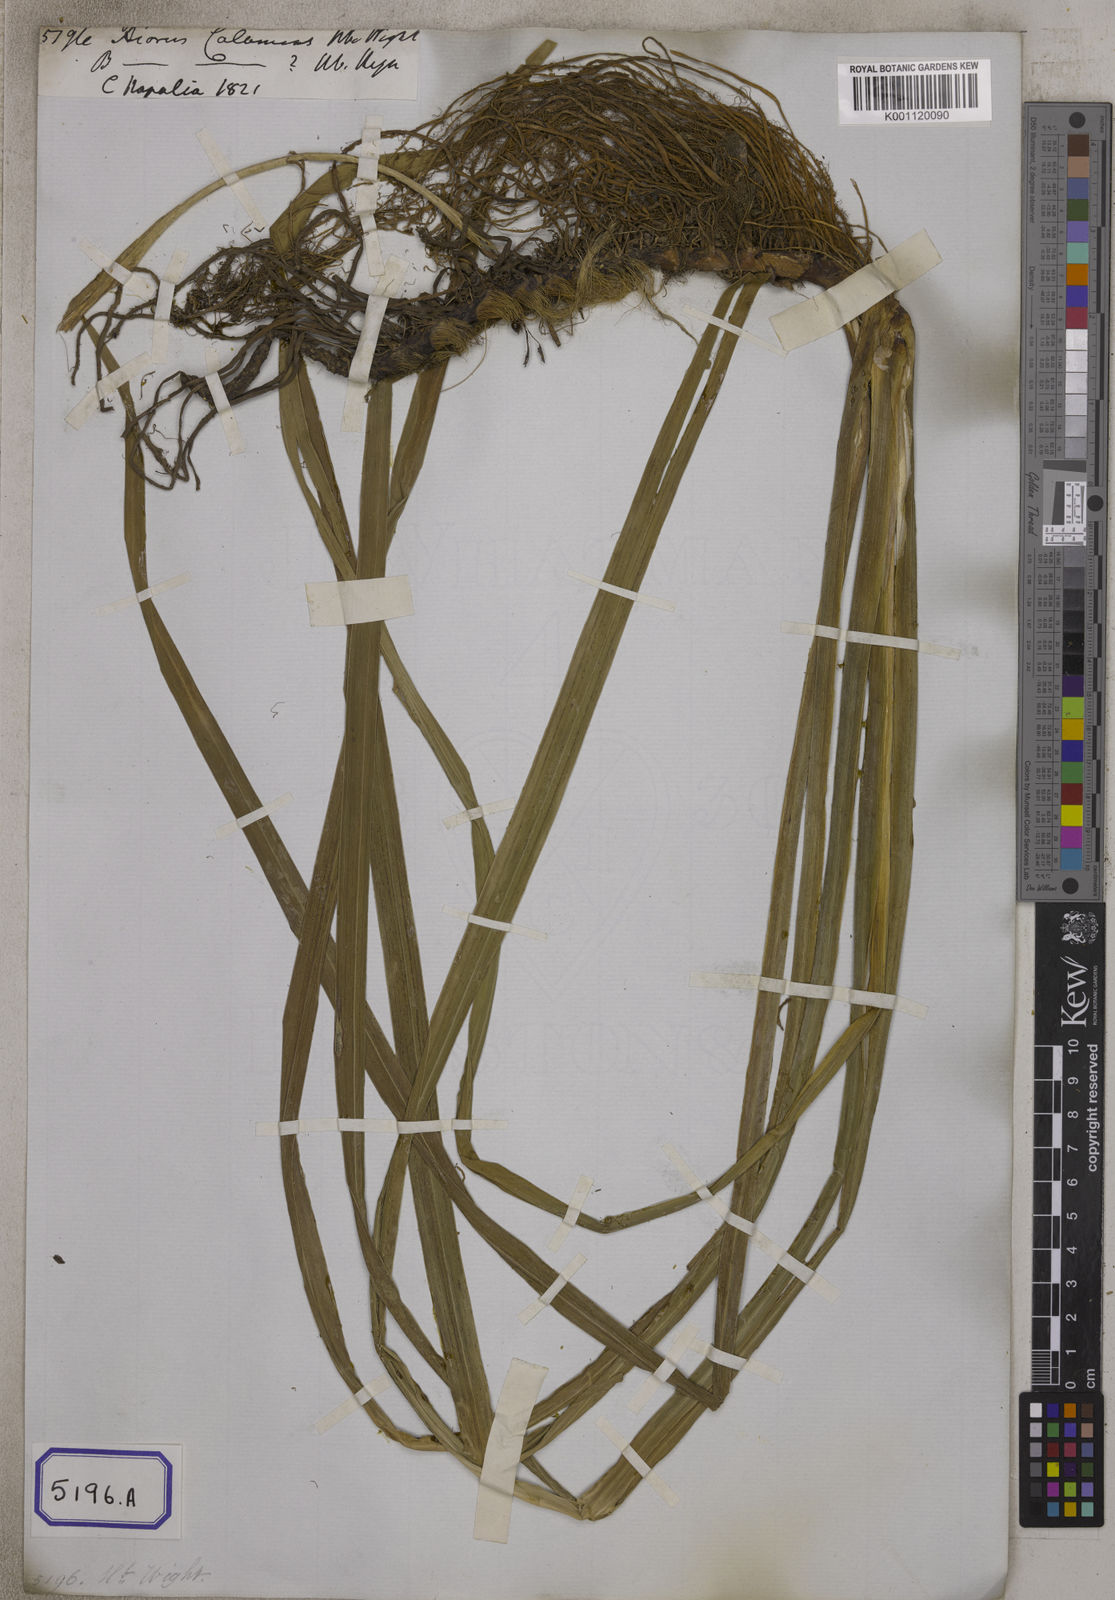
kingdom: Plantae
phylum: Tracheophyta
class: Liliopsida
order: Acorales
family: Acoraceae
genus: Acorus
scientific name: Acorus calamus
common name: Sweet-flag
